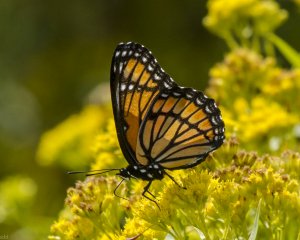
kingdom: Animalia
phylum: Arthropoda
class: Insecta
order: Lepidoptera
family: Nymphalidae
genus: Limenitis
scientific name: Limenitis archippus
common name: Viceroy
